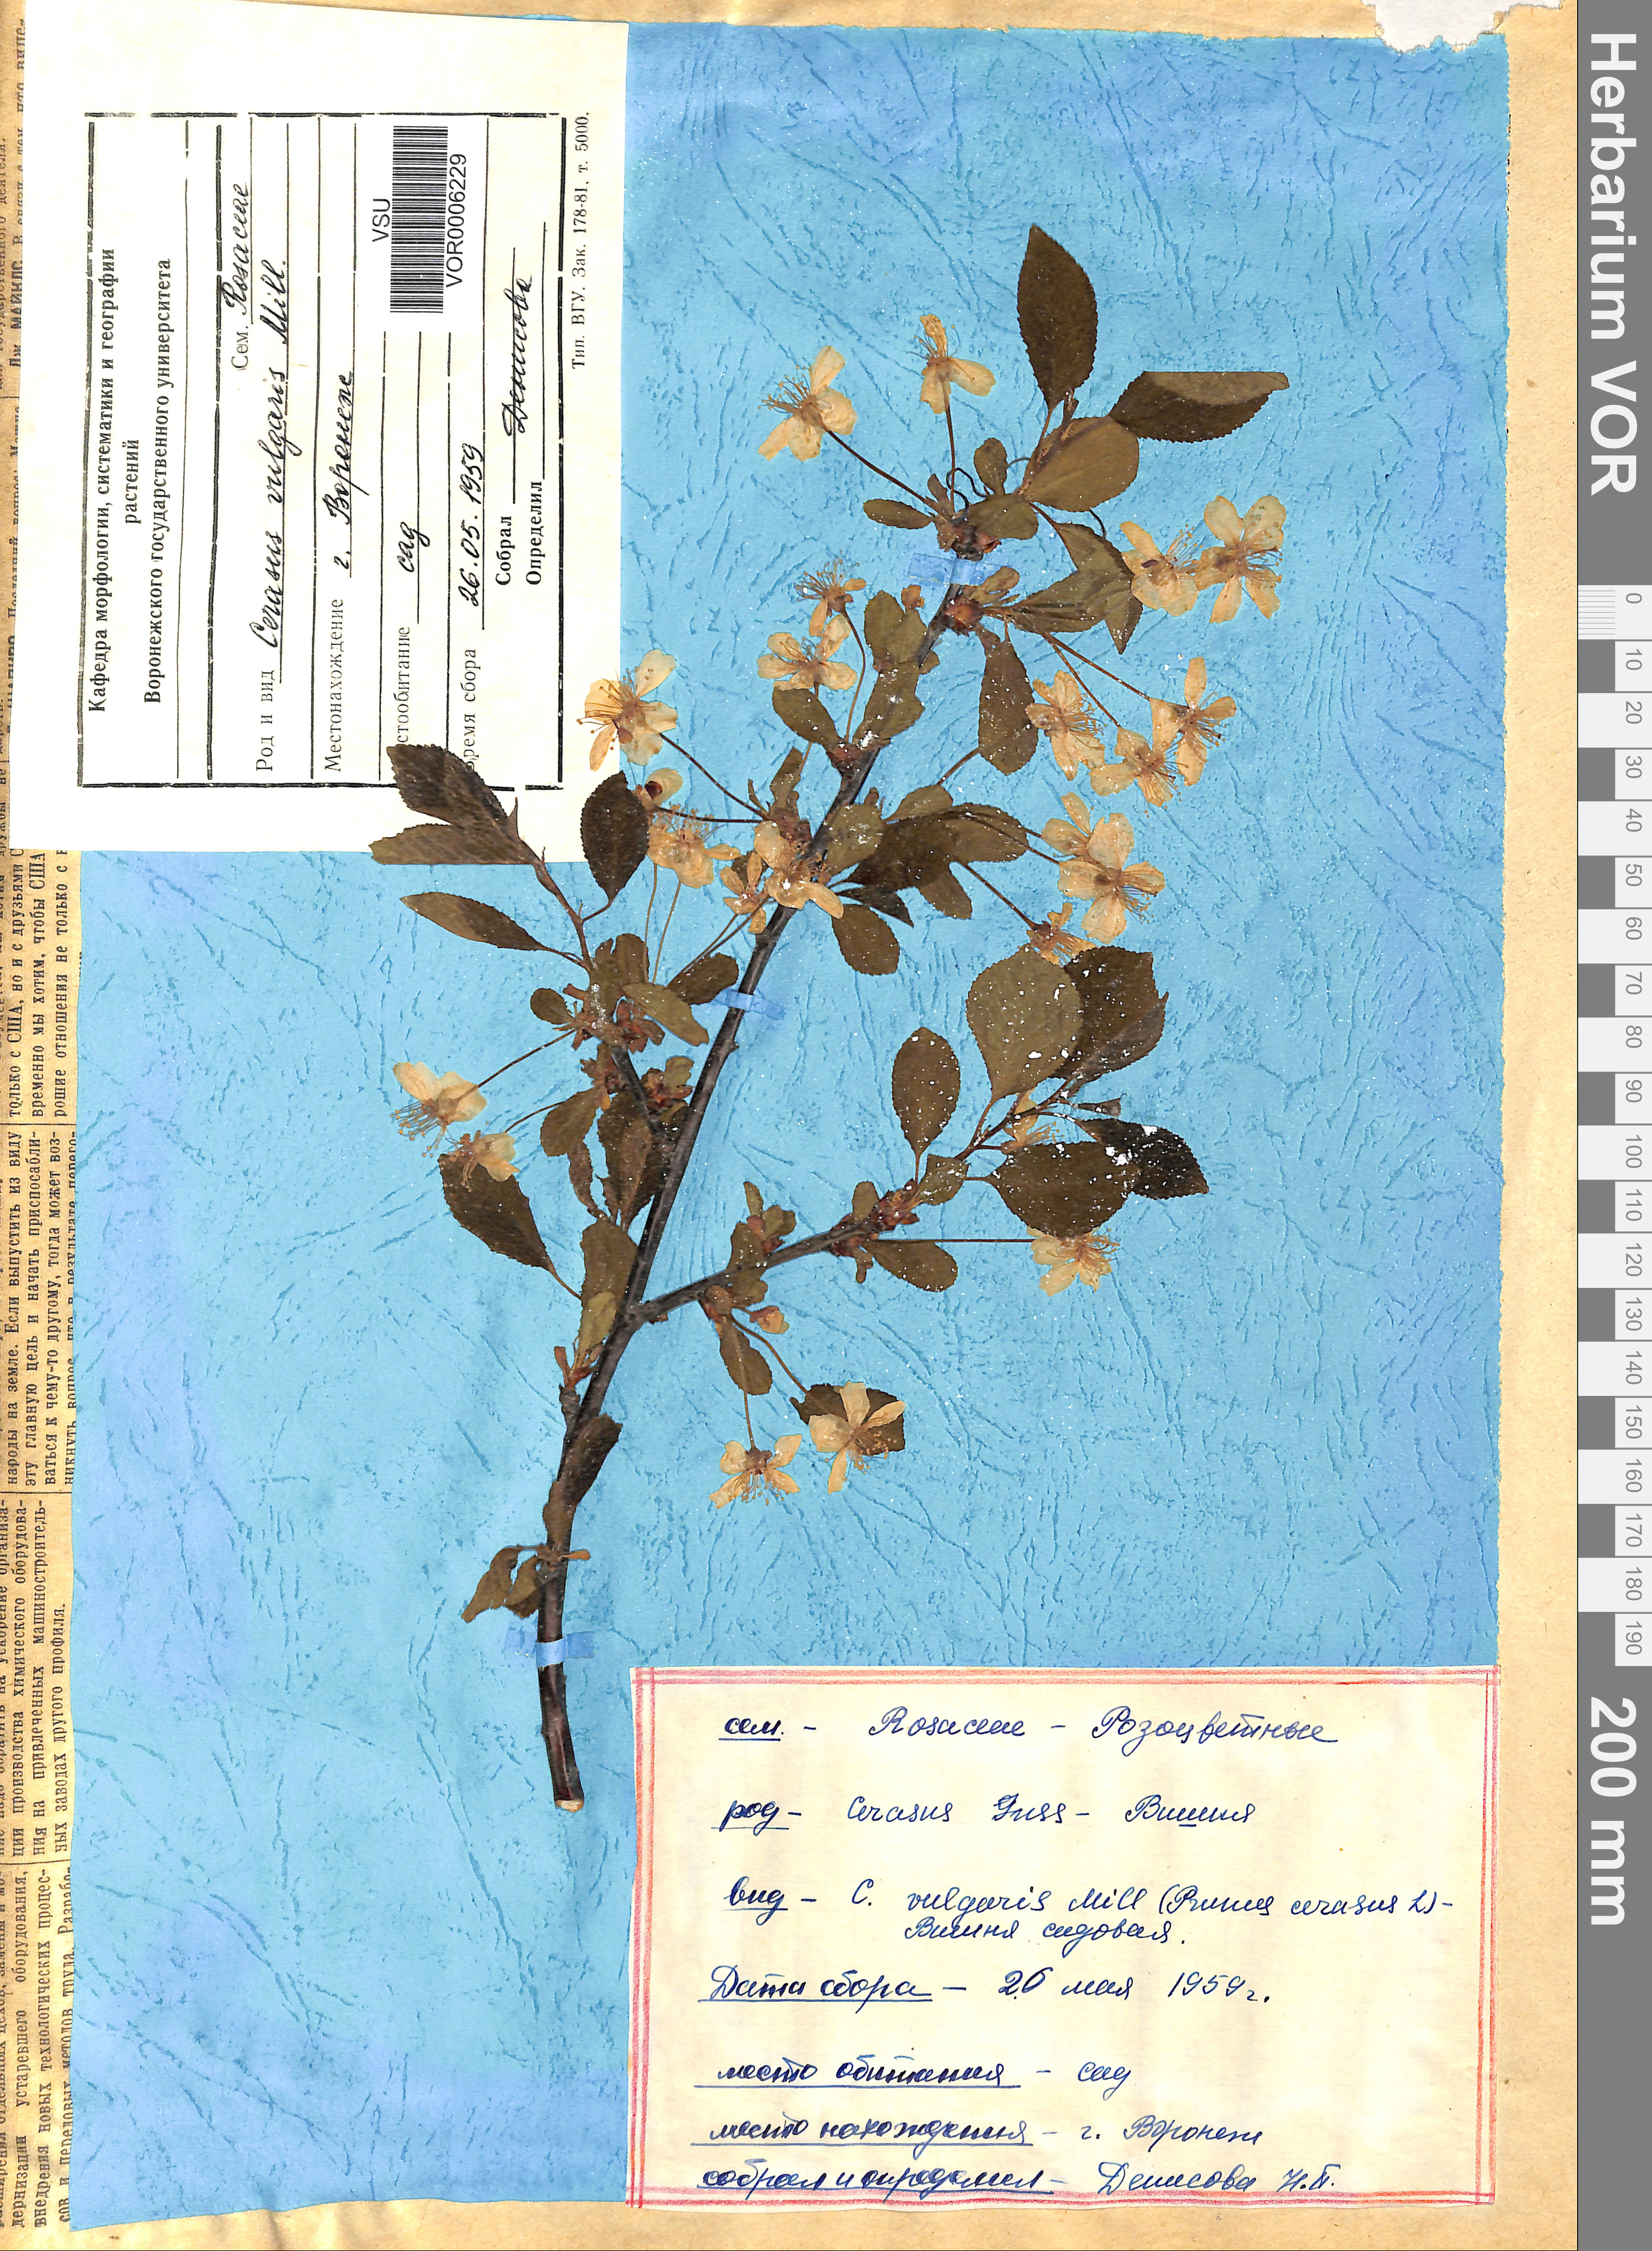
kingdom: Plantae
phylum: Tracheophyta
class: Magnoliopsida
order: Rosales
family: Rosaceae
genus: Prunus
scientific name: Prunus cerasus
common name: Morello cherry
